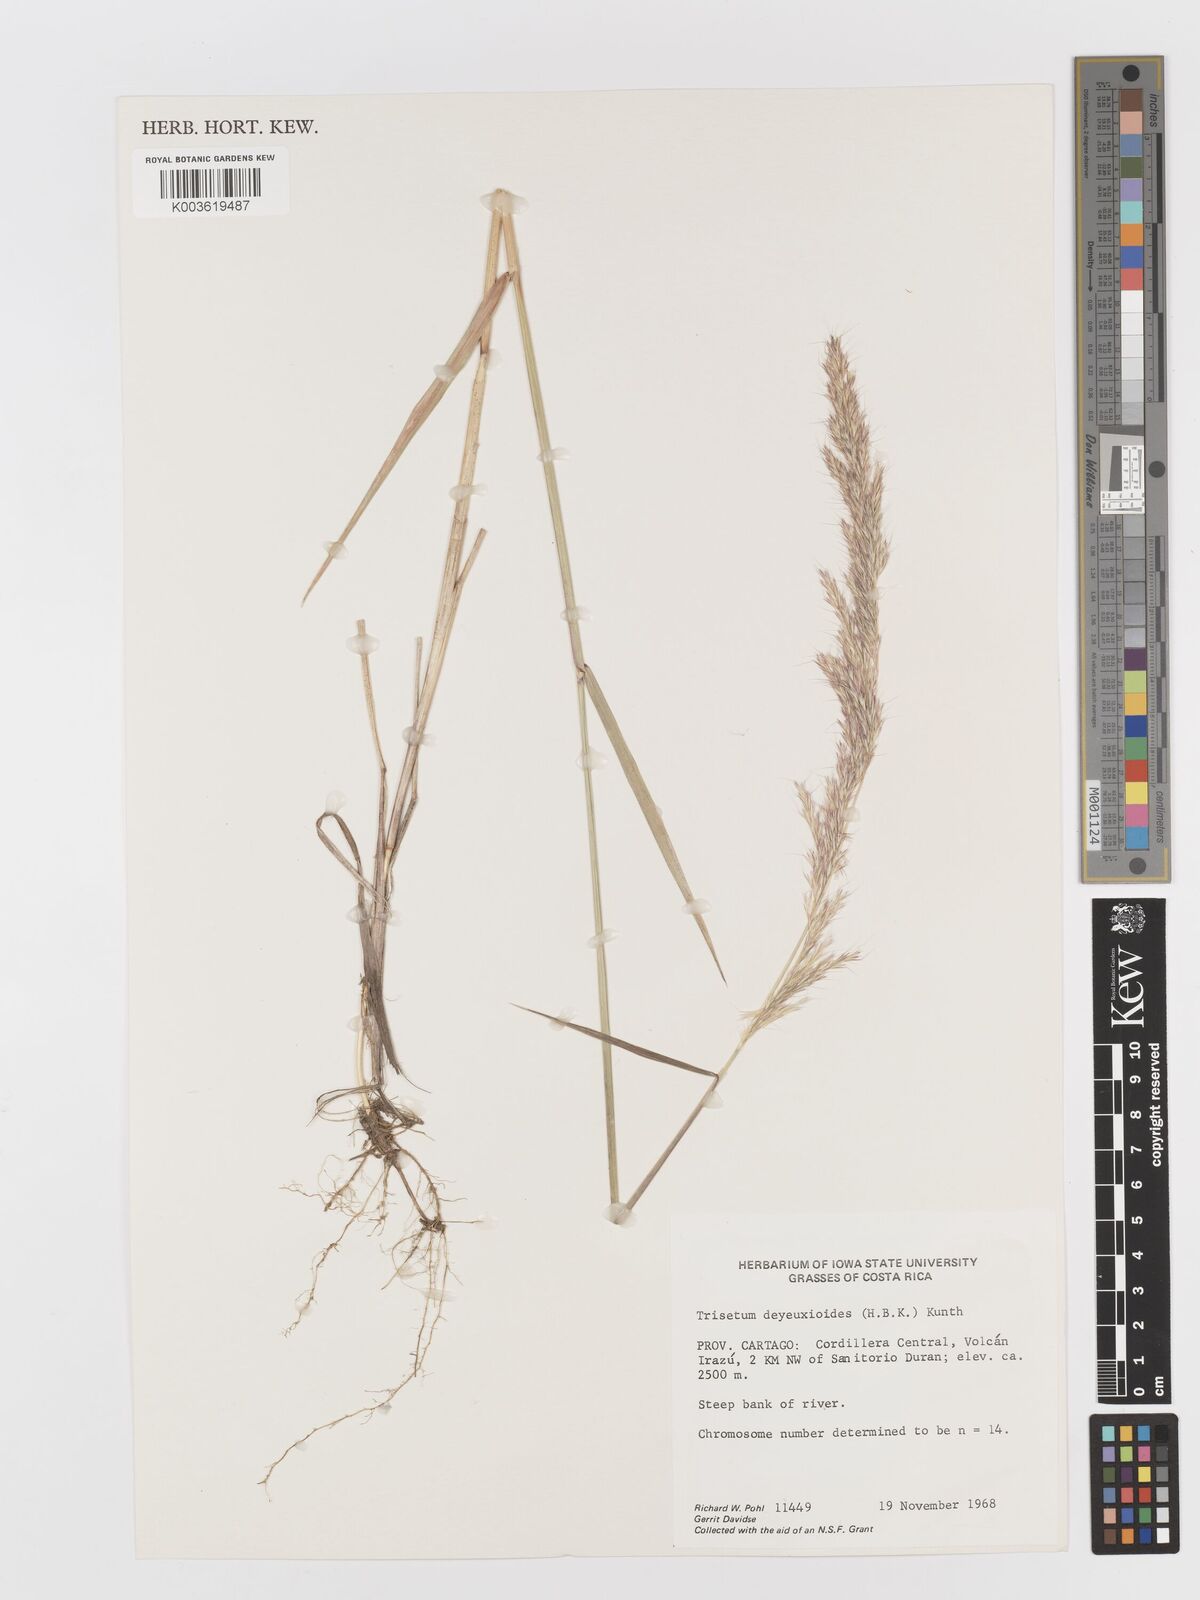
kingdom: Plantae
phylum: Tracheophyta
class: Liliopsida
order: Poales
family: Poaceae
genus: Peyritschia
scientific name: Peyritschia deyeuxioides
